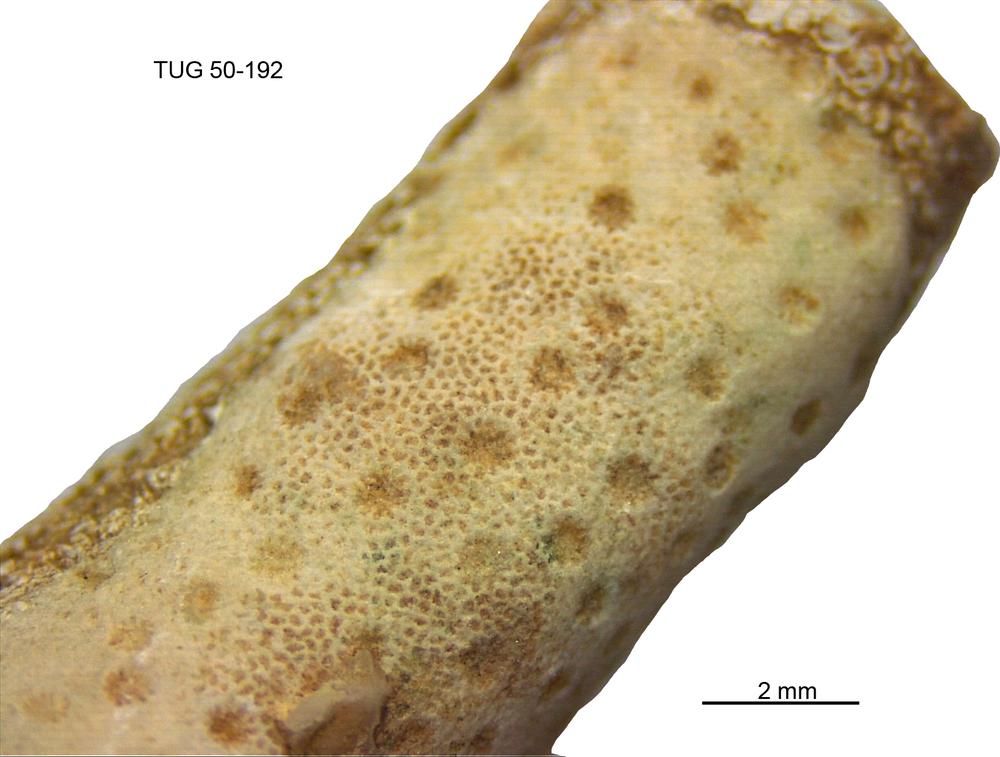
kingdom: Animalia
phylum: Cnidaria
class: Anthozoa
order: Heliolitina
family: Heliolitidae
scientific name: Heliolitidae
